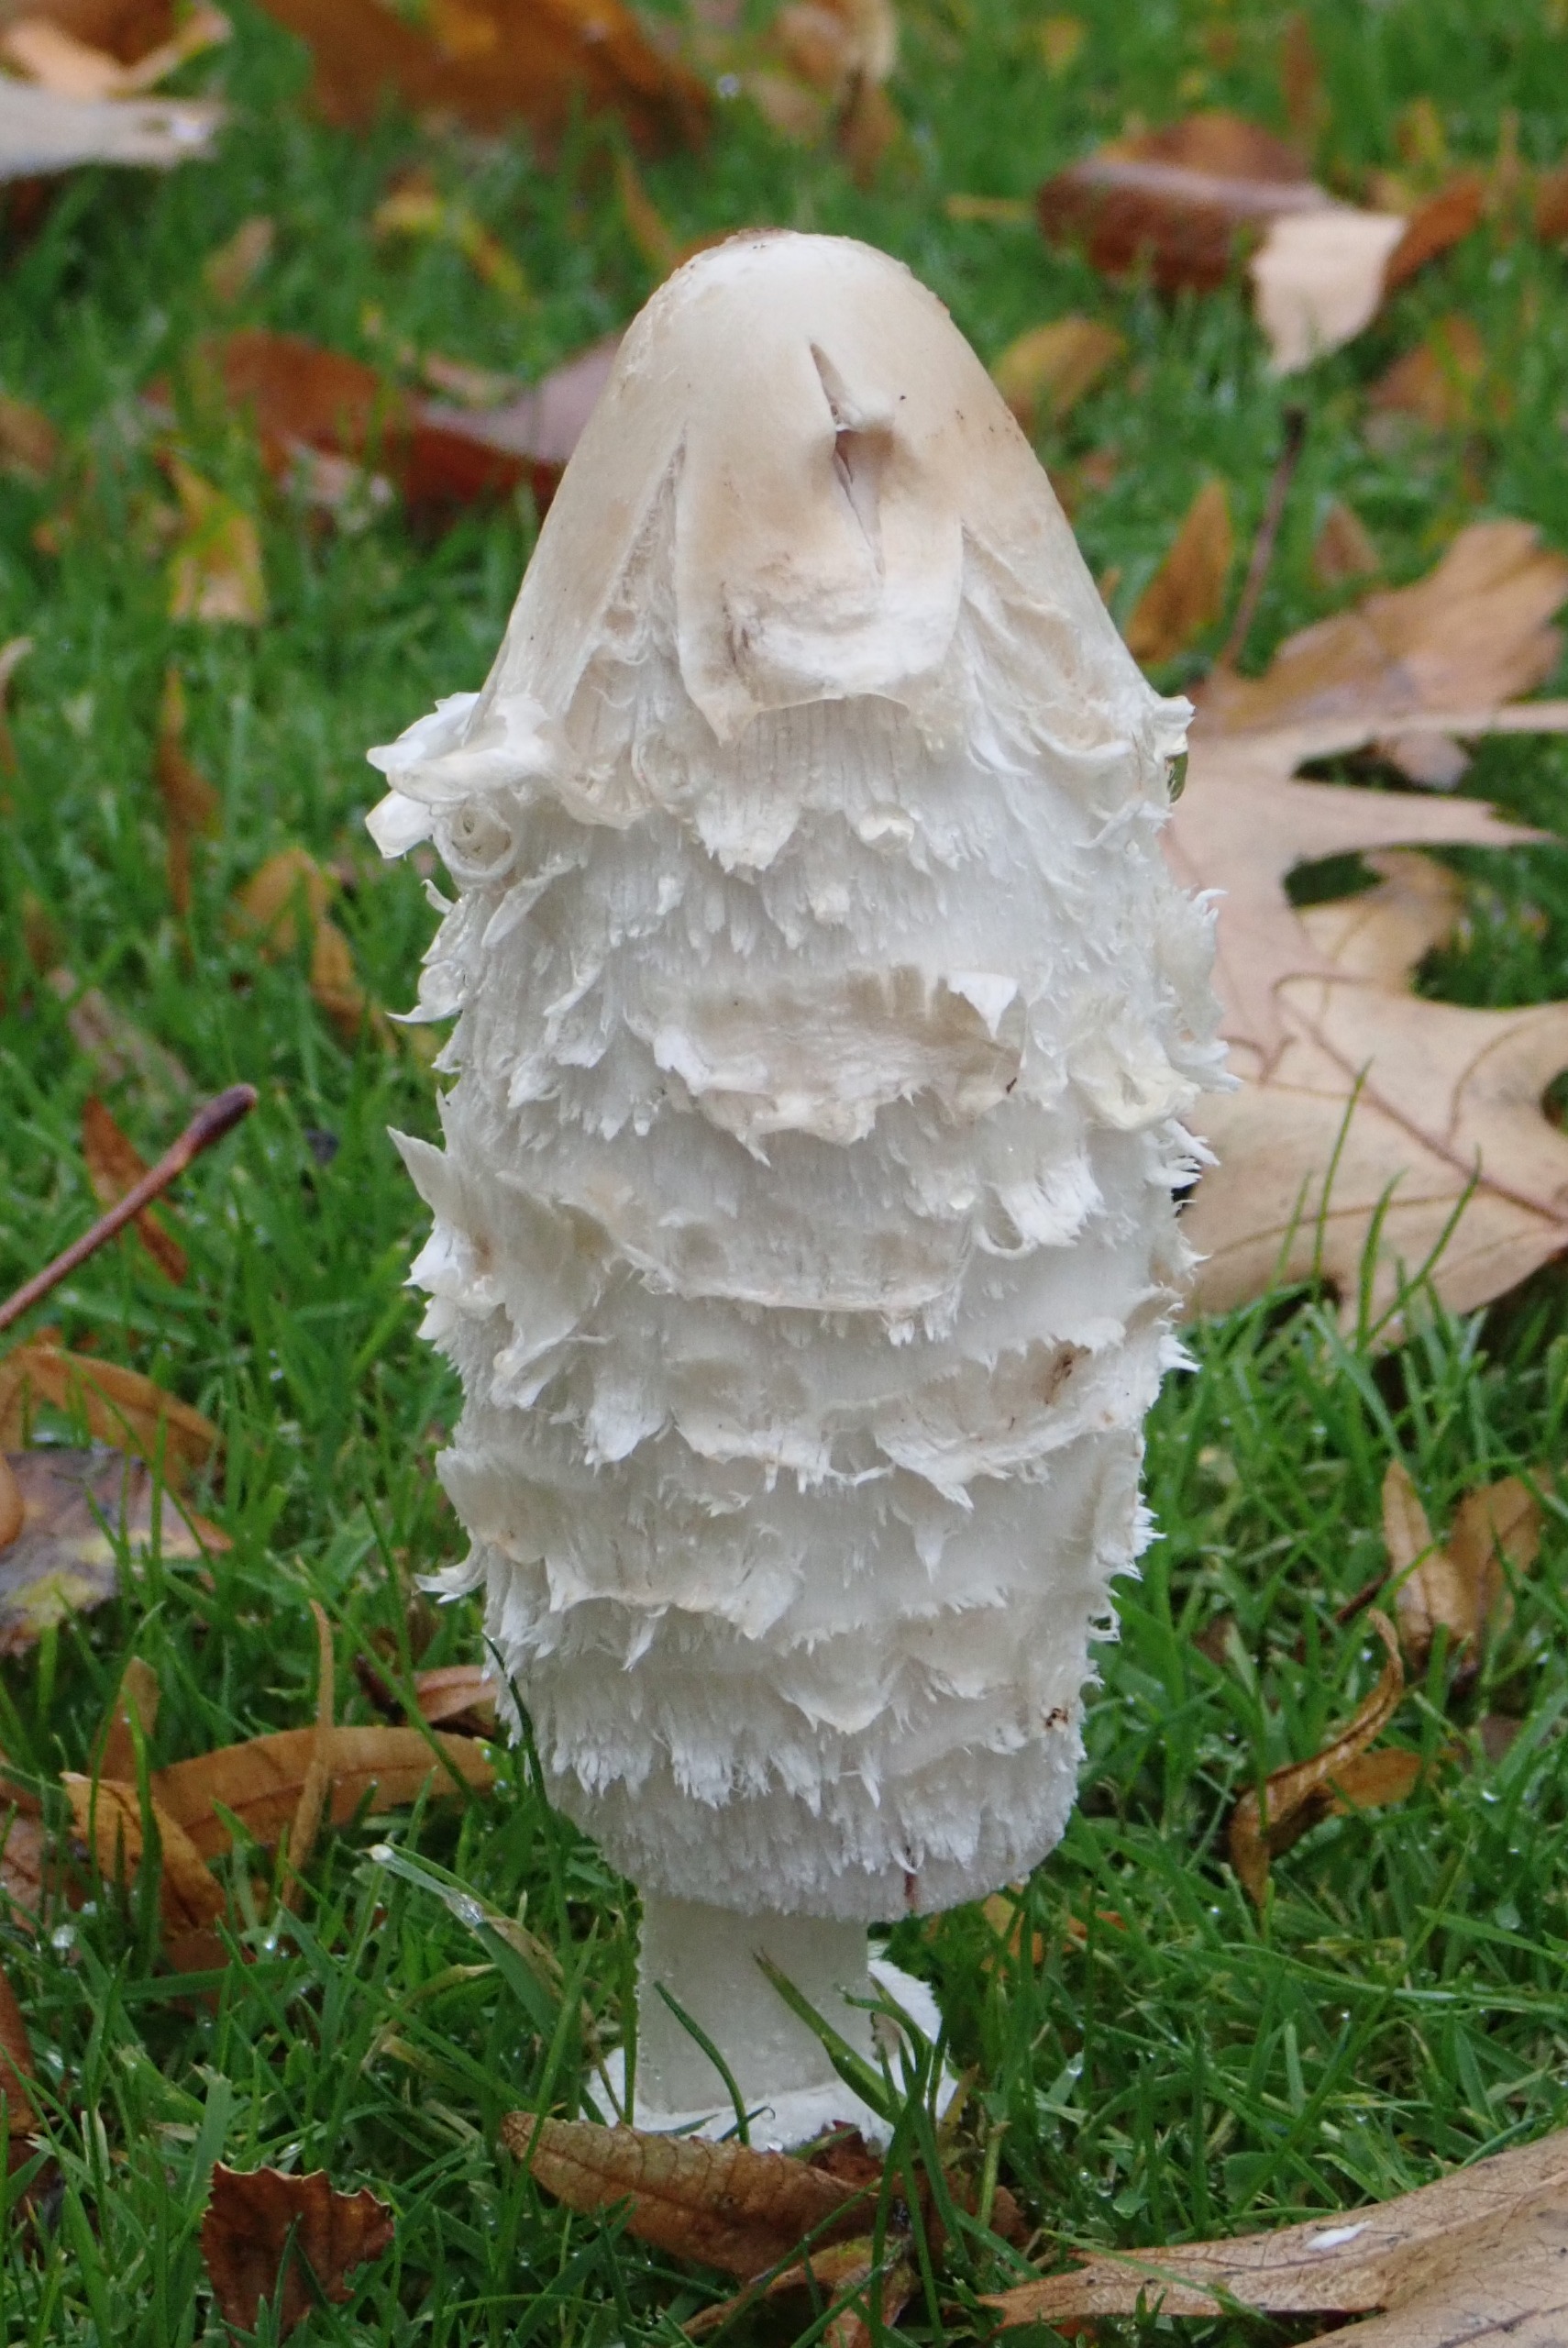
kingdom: Fungi
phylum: Basidiomycota
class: Agaricomycetes
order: Agaricales
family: Agaricaceae
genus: Coprinus
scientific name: Coprinus comatus
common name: Stor parykhat
